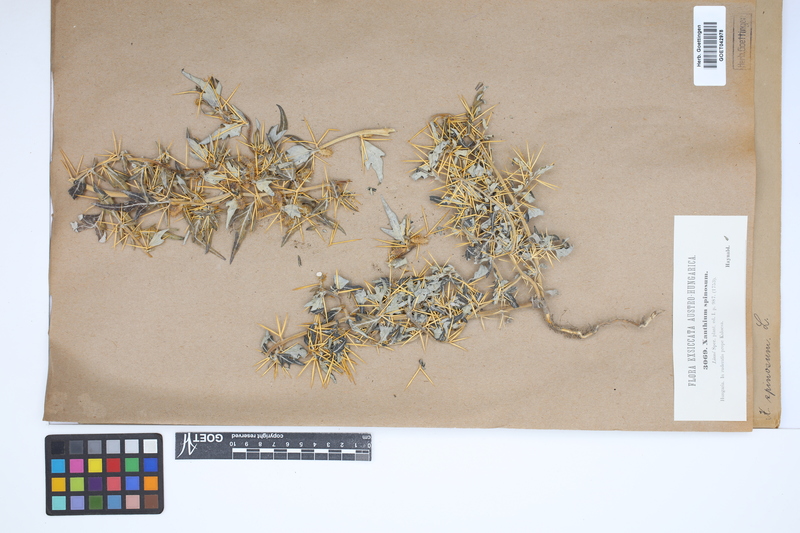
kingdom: Plantae
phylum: Tracheophyta
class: Magnoliopsida
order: Asterales
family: Asteraceae
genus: Xanthium
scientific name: Xanthium spinosum
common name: Spiny cocklebur
